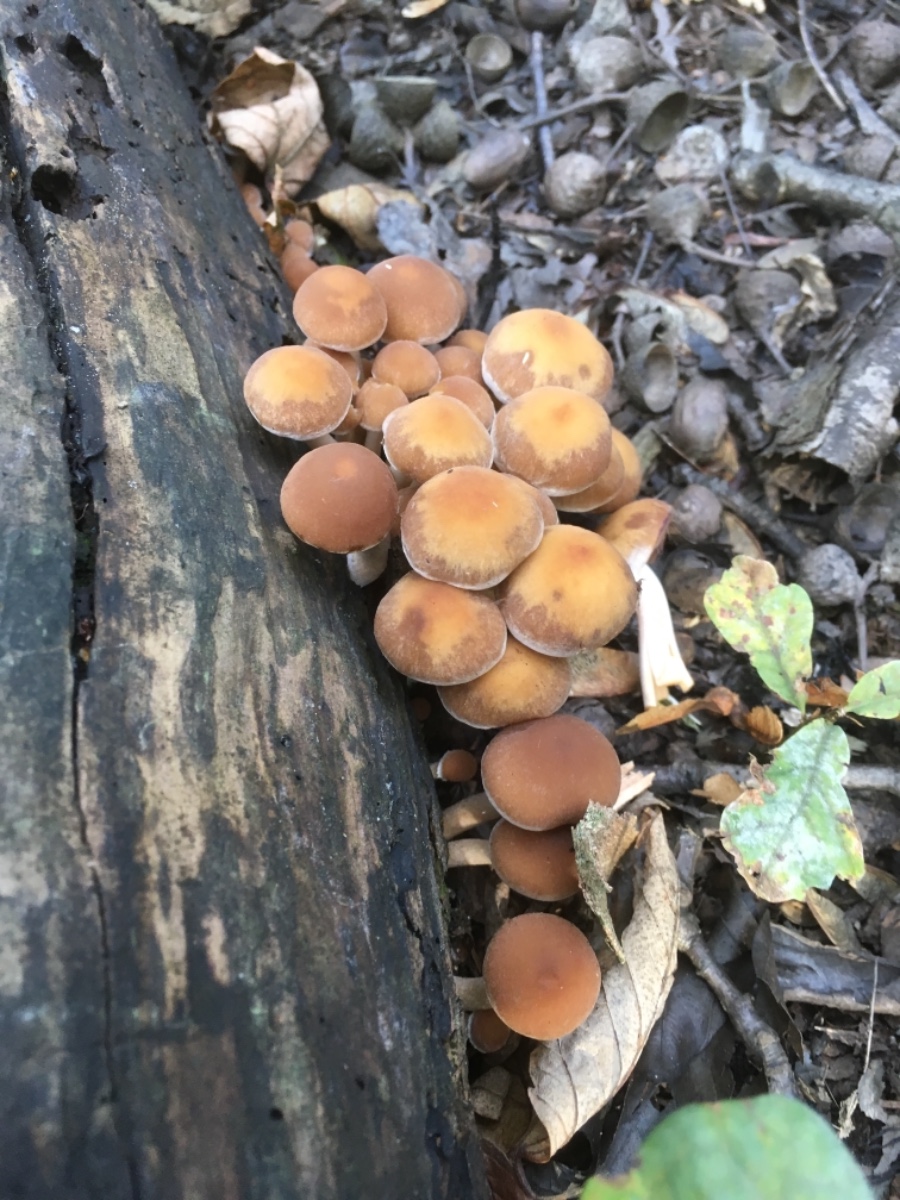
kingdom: Fungi
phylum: Basidiomycota
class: Agaricomycetes
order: Agaricales
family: Psathyrellaceae
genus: Psathyrella
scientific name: Psathyrella piluliformis
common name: lysstokket mørkhat
